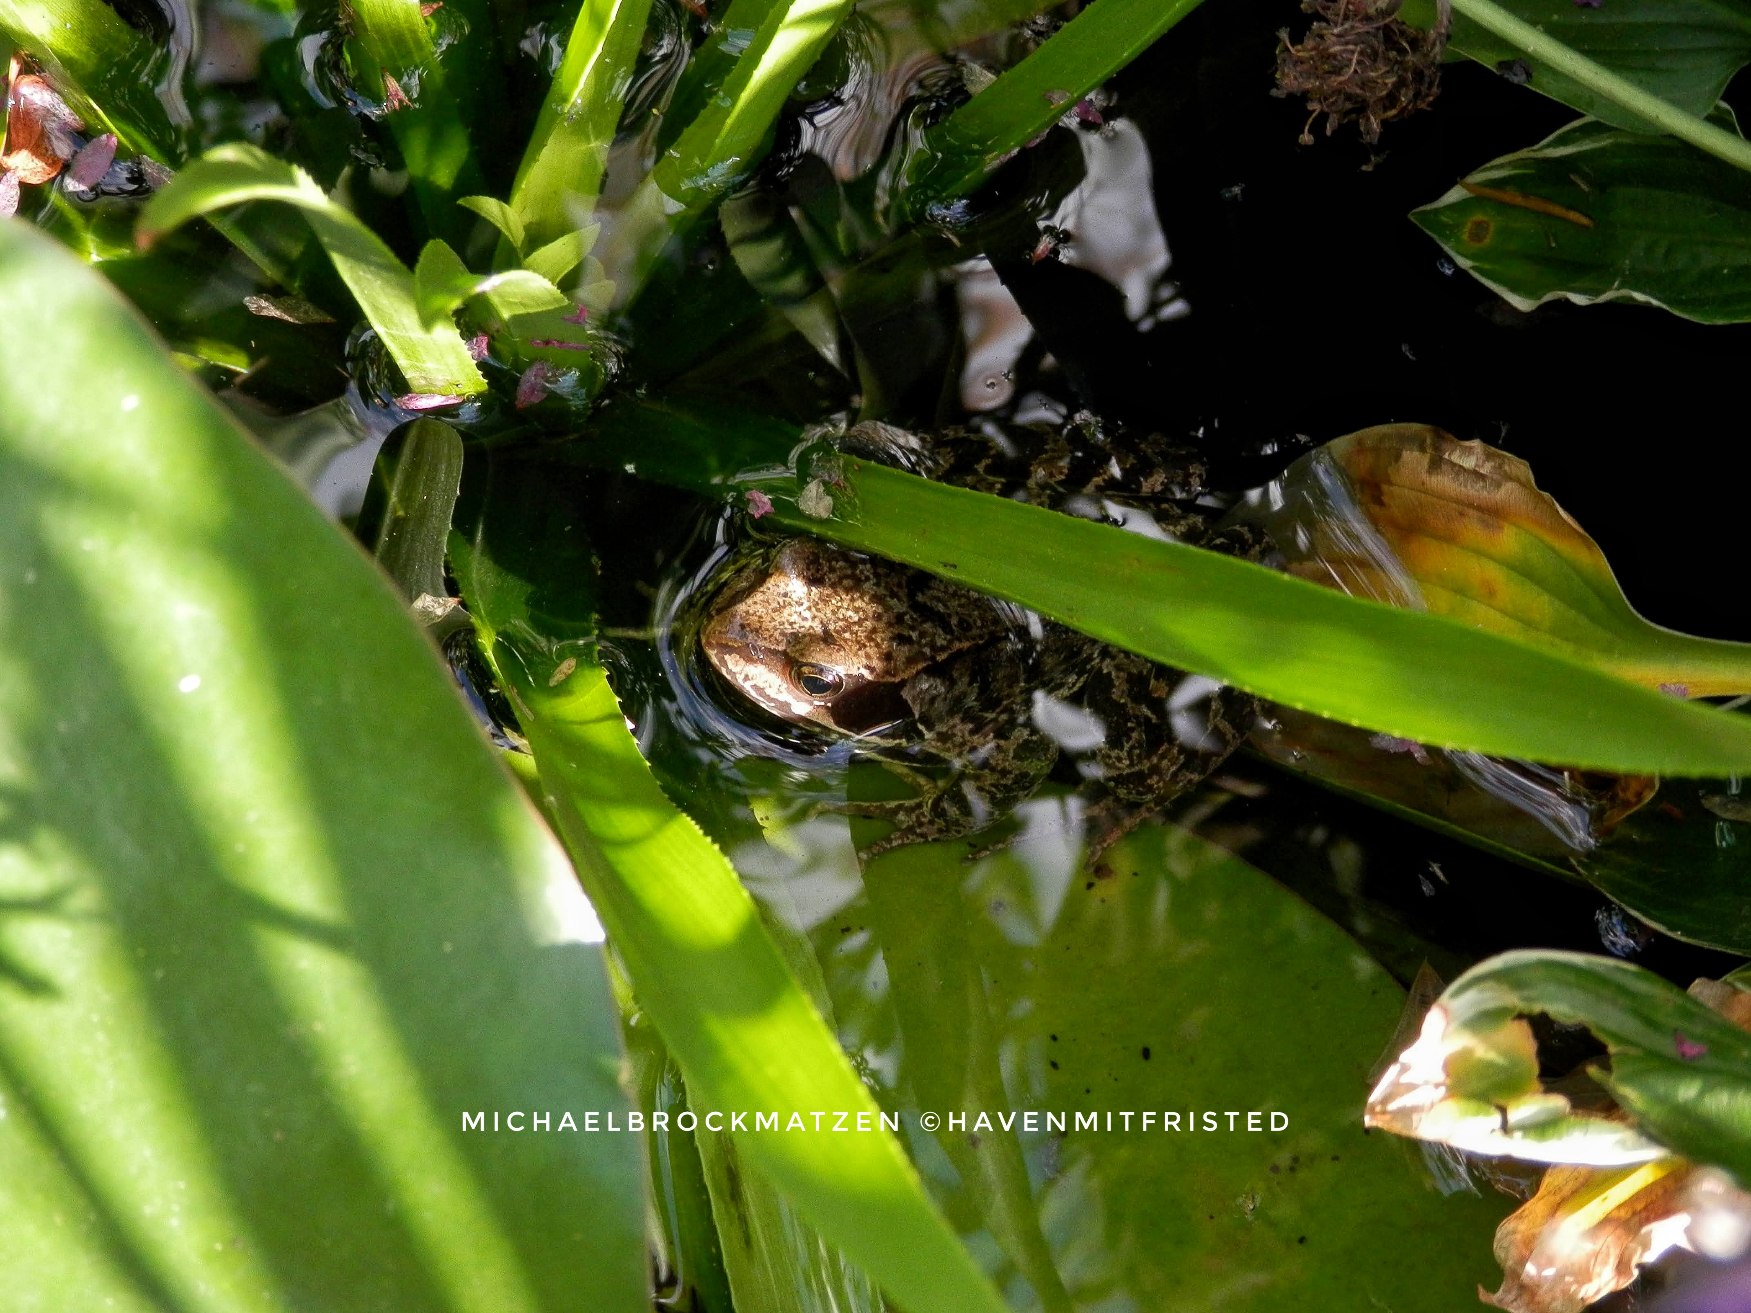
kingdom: Animalia
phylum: Chordata
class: Amphibia
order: Anura
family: Ranidae
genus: Rana
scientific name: Rana temporaria
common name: Butsnudet frø
